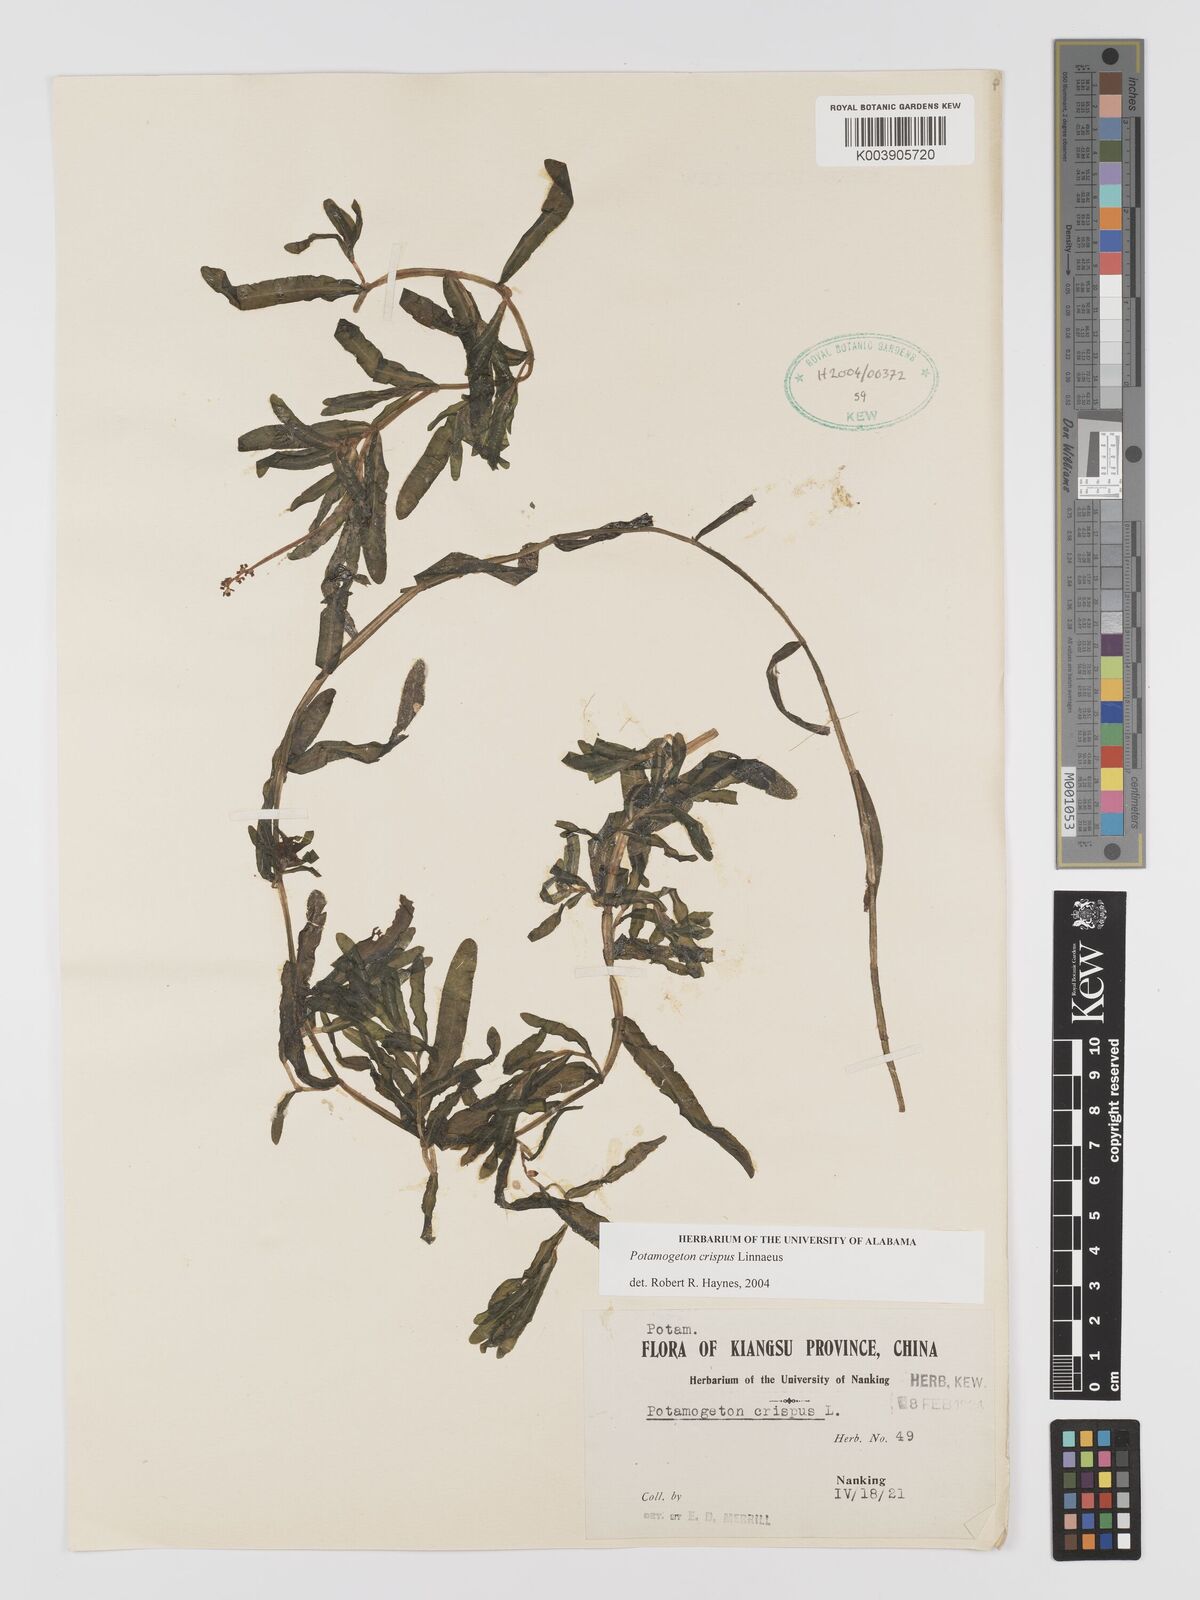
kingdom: Plantae
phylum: Tracheophyta
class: Liliopsida
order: Alismatales
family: Potamogetonaceae
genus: Potamogeton
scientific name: Potamogeton crispus
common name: Curled pondweed
